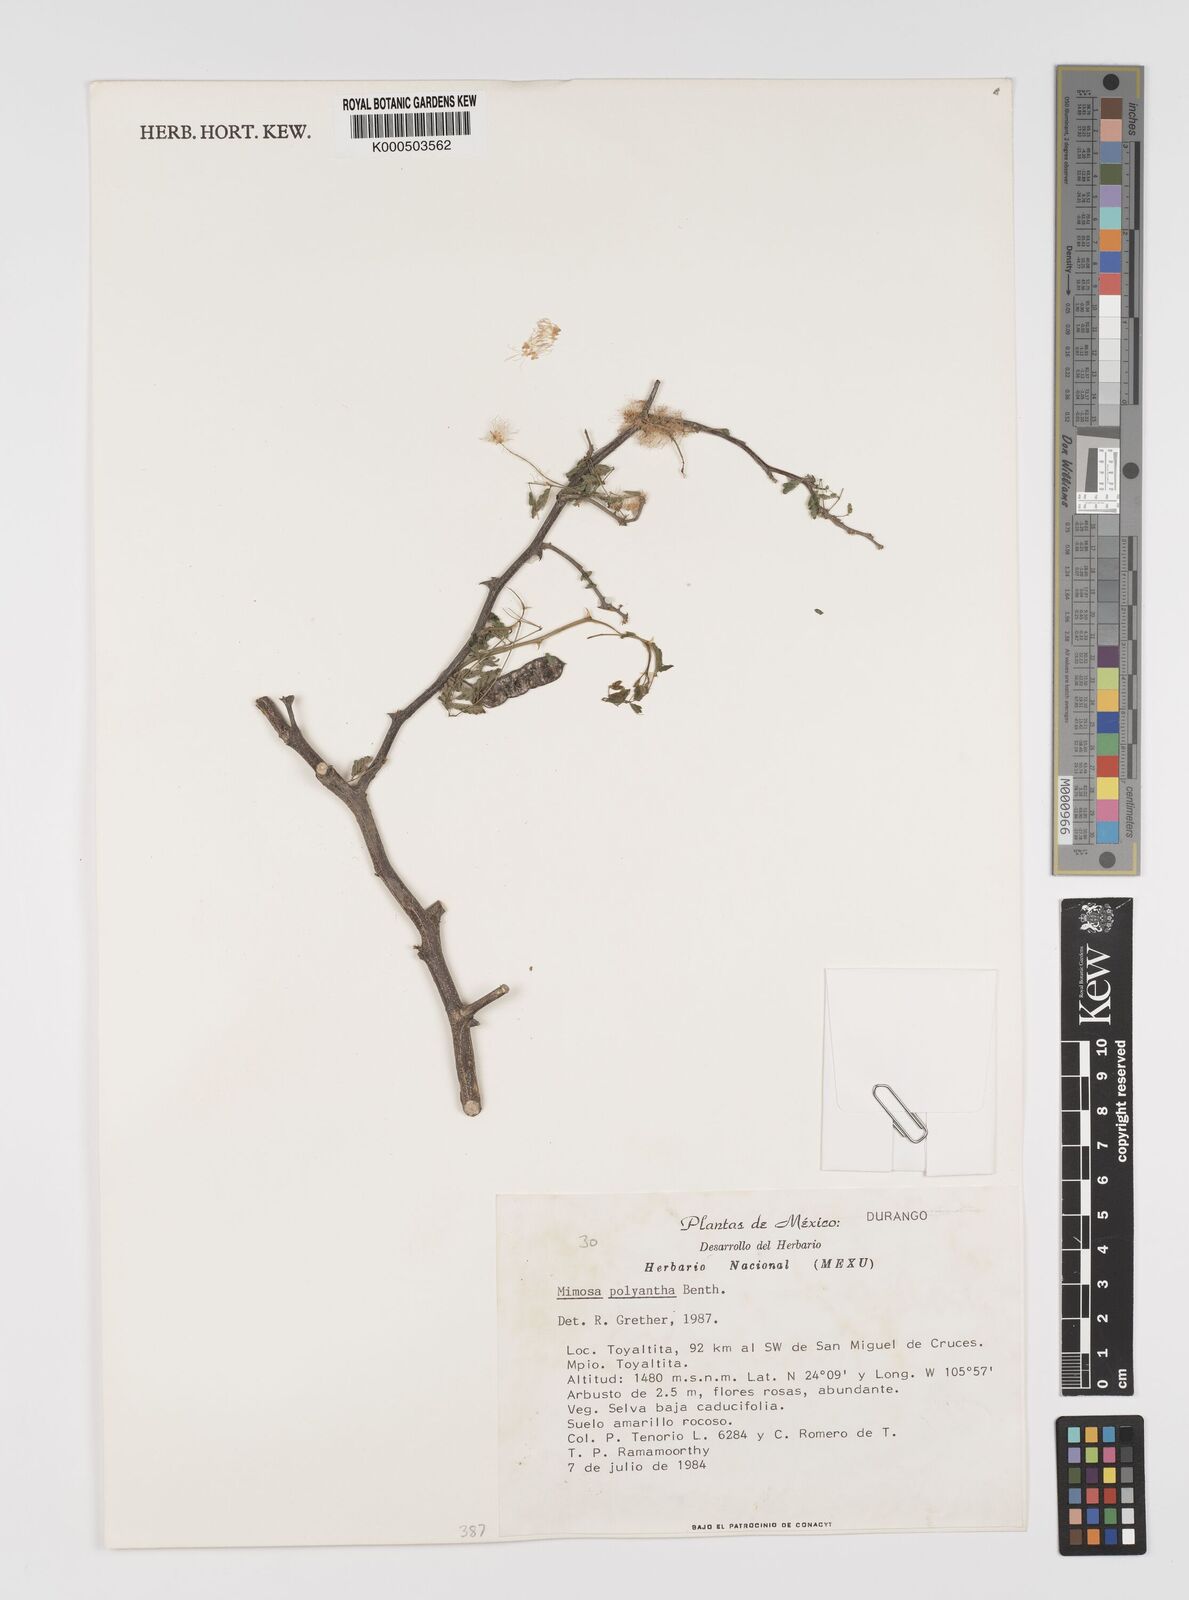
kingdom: Plantae
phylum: Tracheophyta
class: Magnoliopsida
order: Fabales
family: Fabaceae
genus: Mimosa
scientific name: Mimosa polyantha
